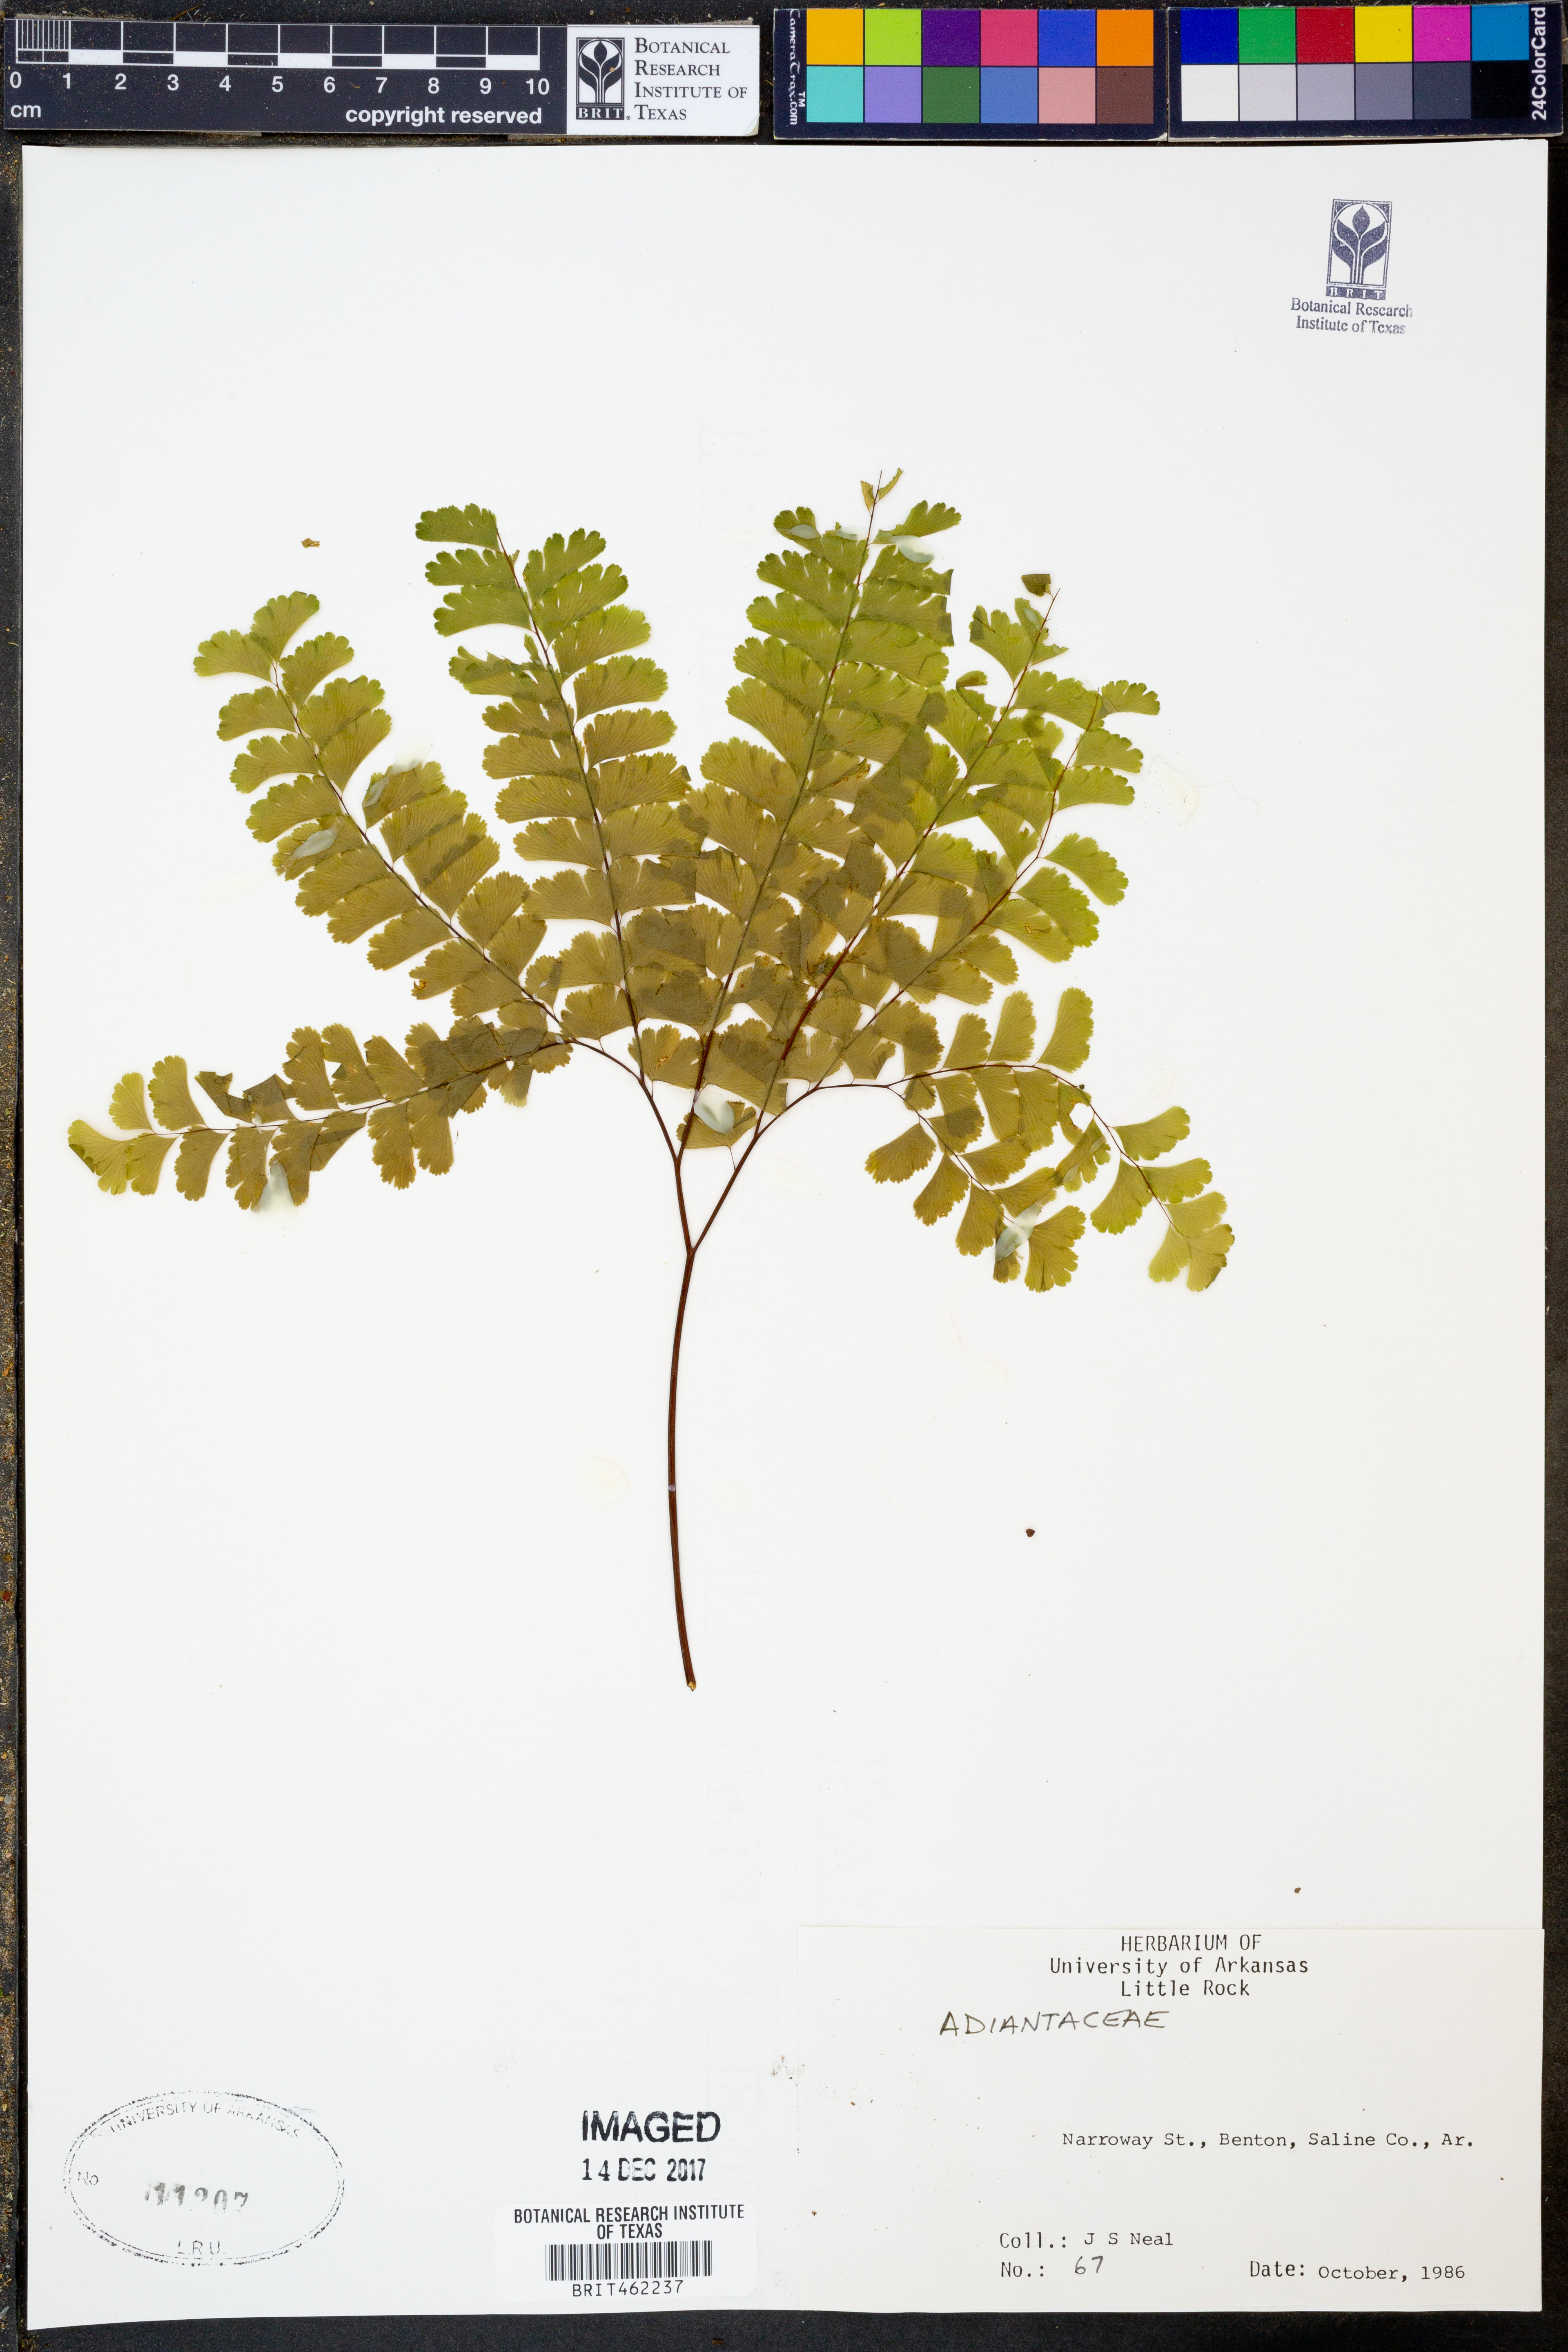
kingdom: Plantae
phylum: Tracheophyta
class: Magnoliopsida
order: Sapindales
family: Anacardiaceae
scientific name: Anacardiaceae
